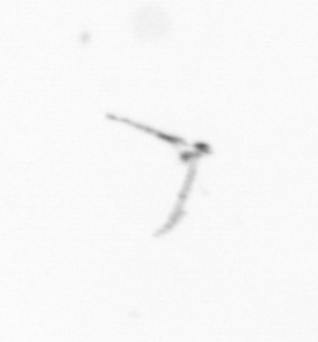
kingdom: Chromista
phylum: Ochrophyta
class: Bacillariophyceae
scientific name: Bacillariophyceae
